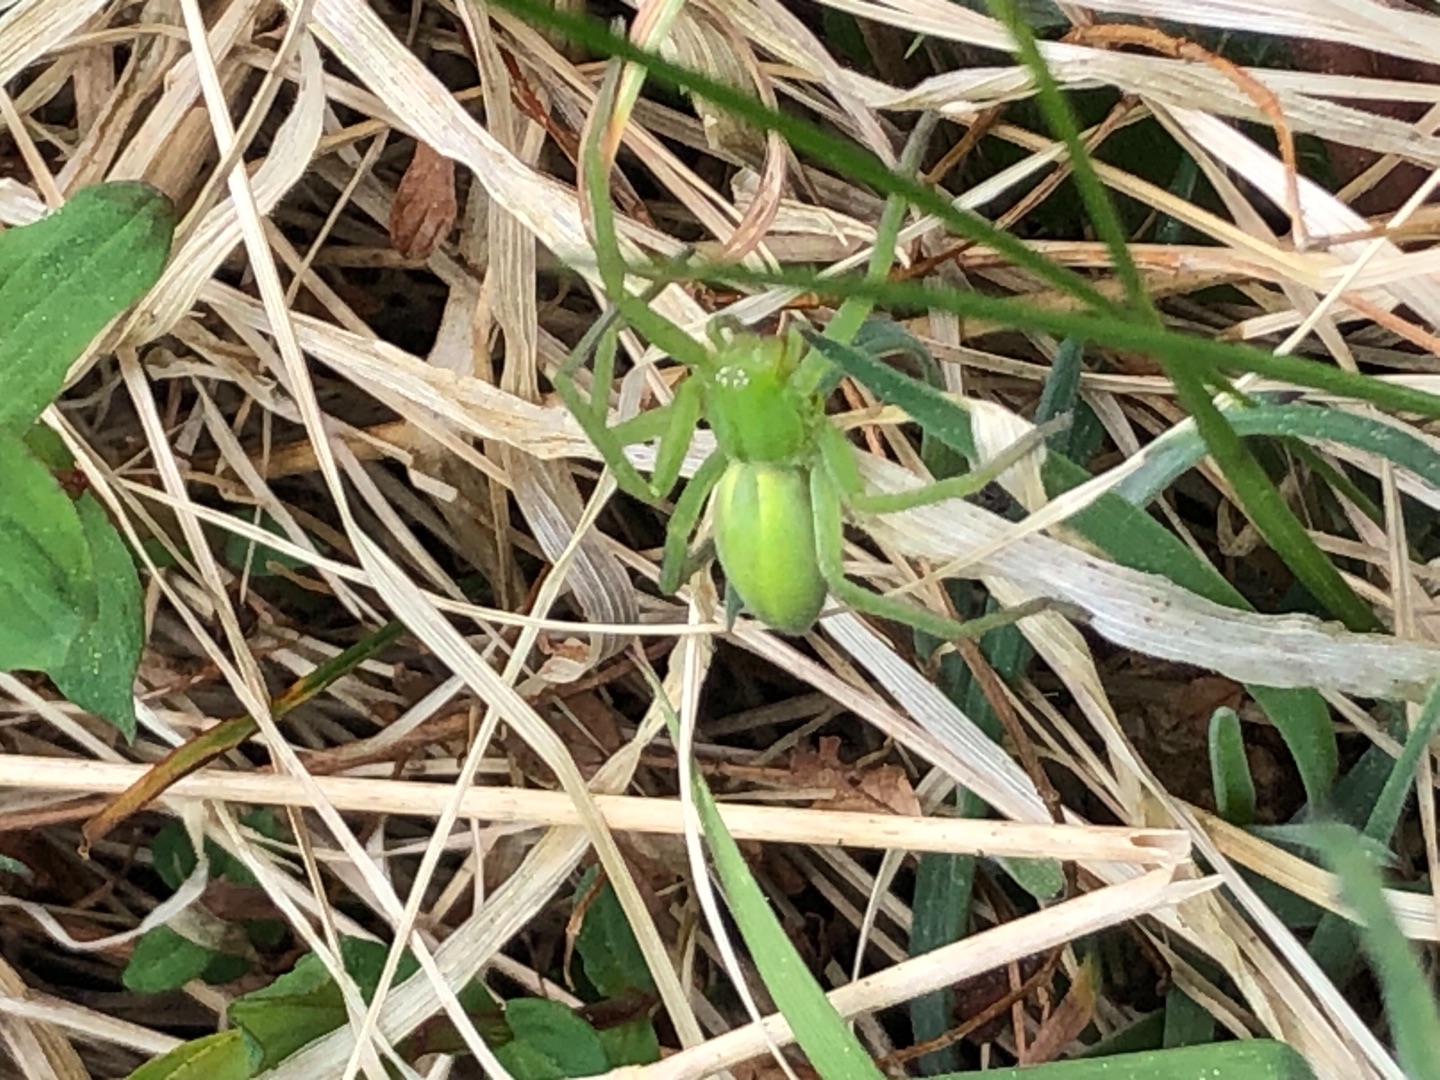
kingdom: Animalia
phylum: Arthropoda
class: Arachnida
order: Araneae
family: Sparassidae
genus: Micrommata
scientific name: Micrommata virescens
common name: Smaragdedderkop
